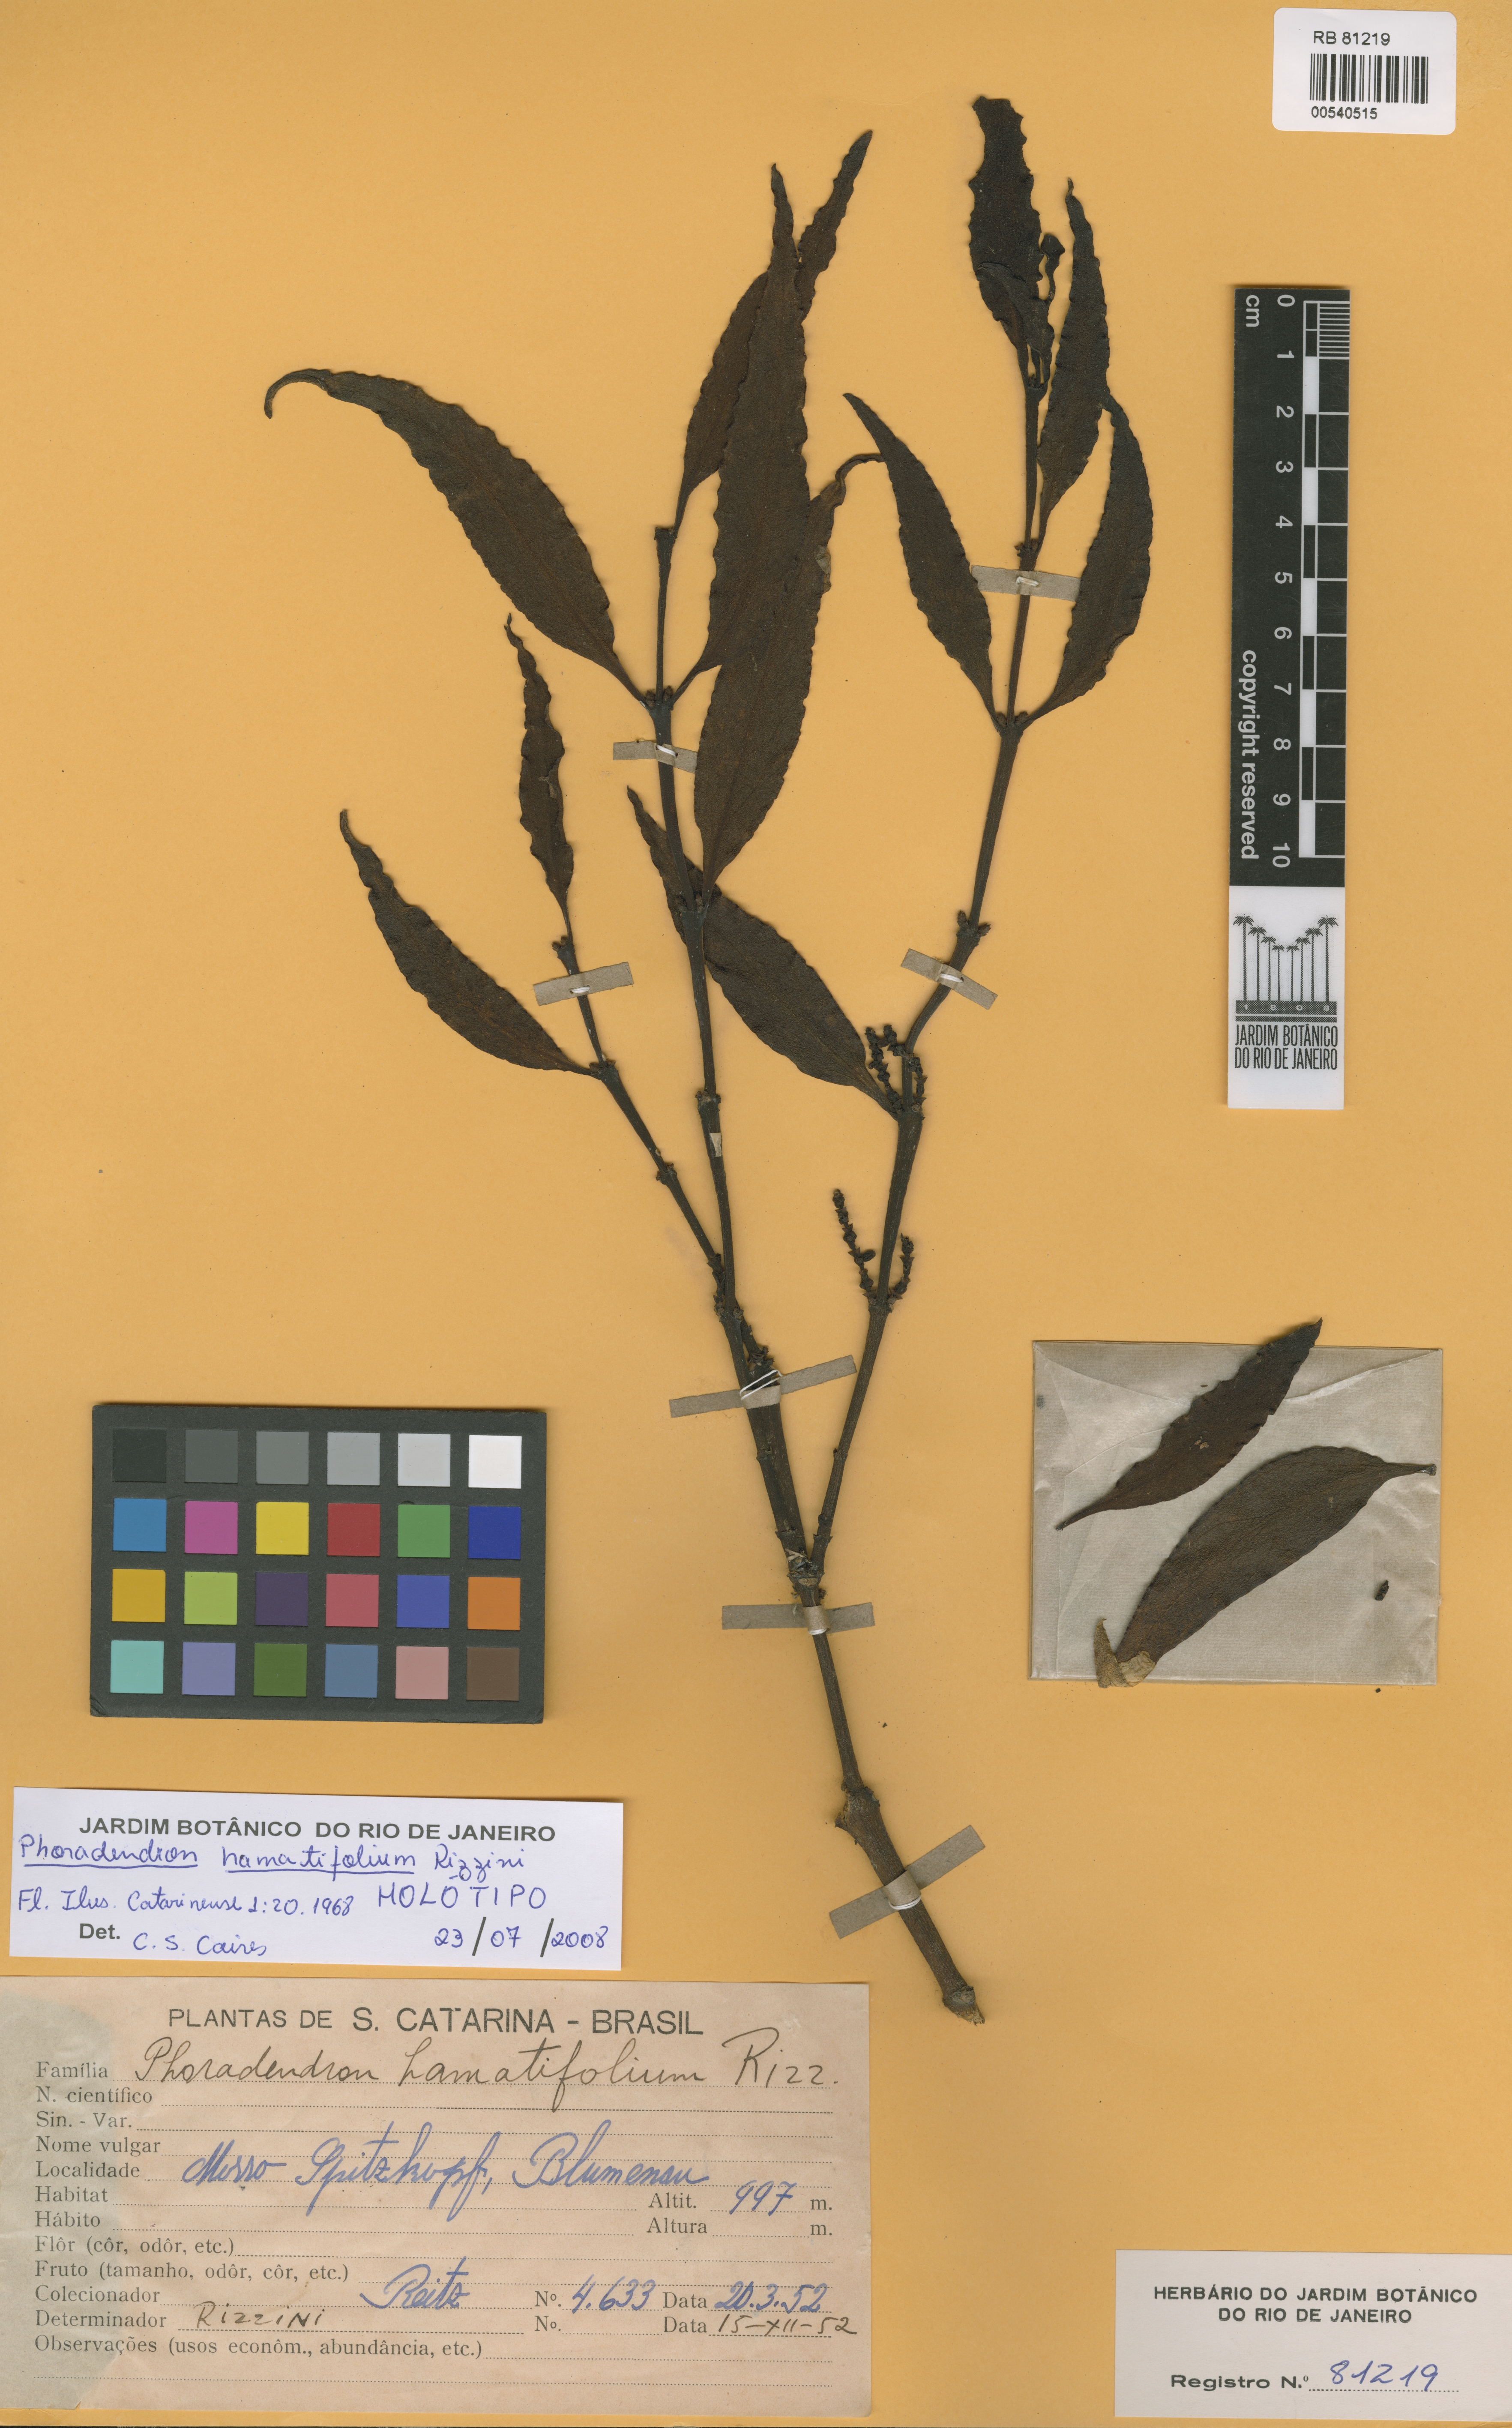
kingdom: Plantae
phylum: Tracheophyta
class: Magnoliopsida
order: Santalales
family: Viscaceae
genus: Phoradendron
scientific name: Phoradendron undulatum
